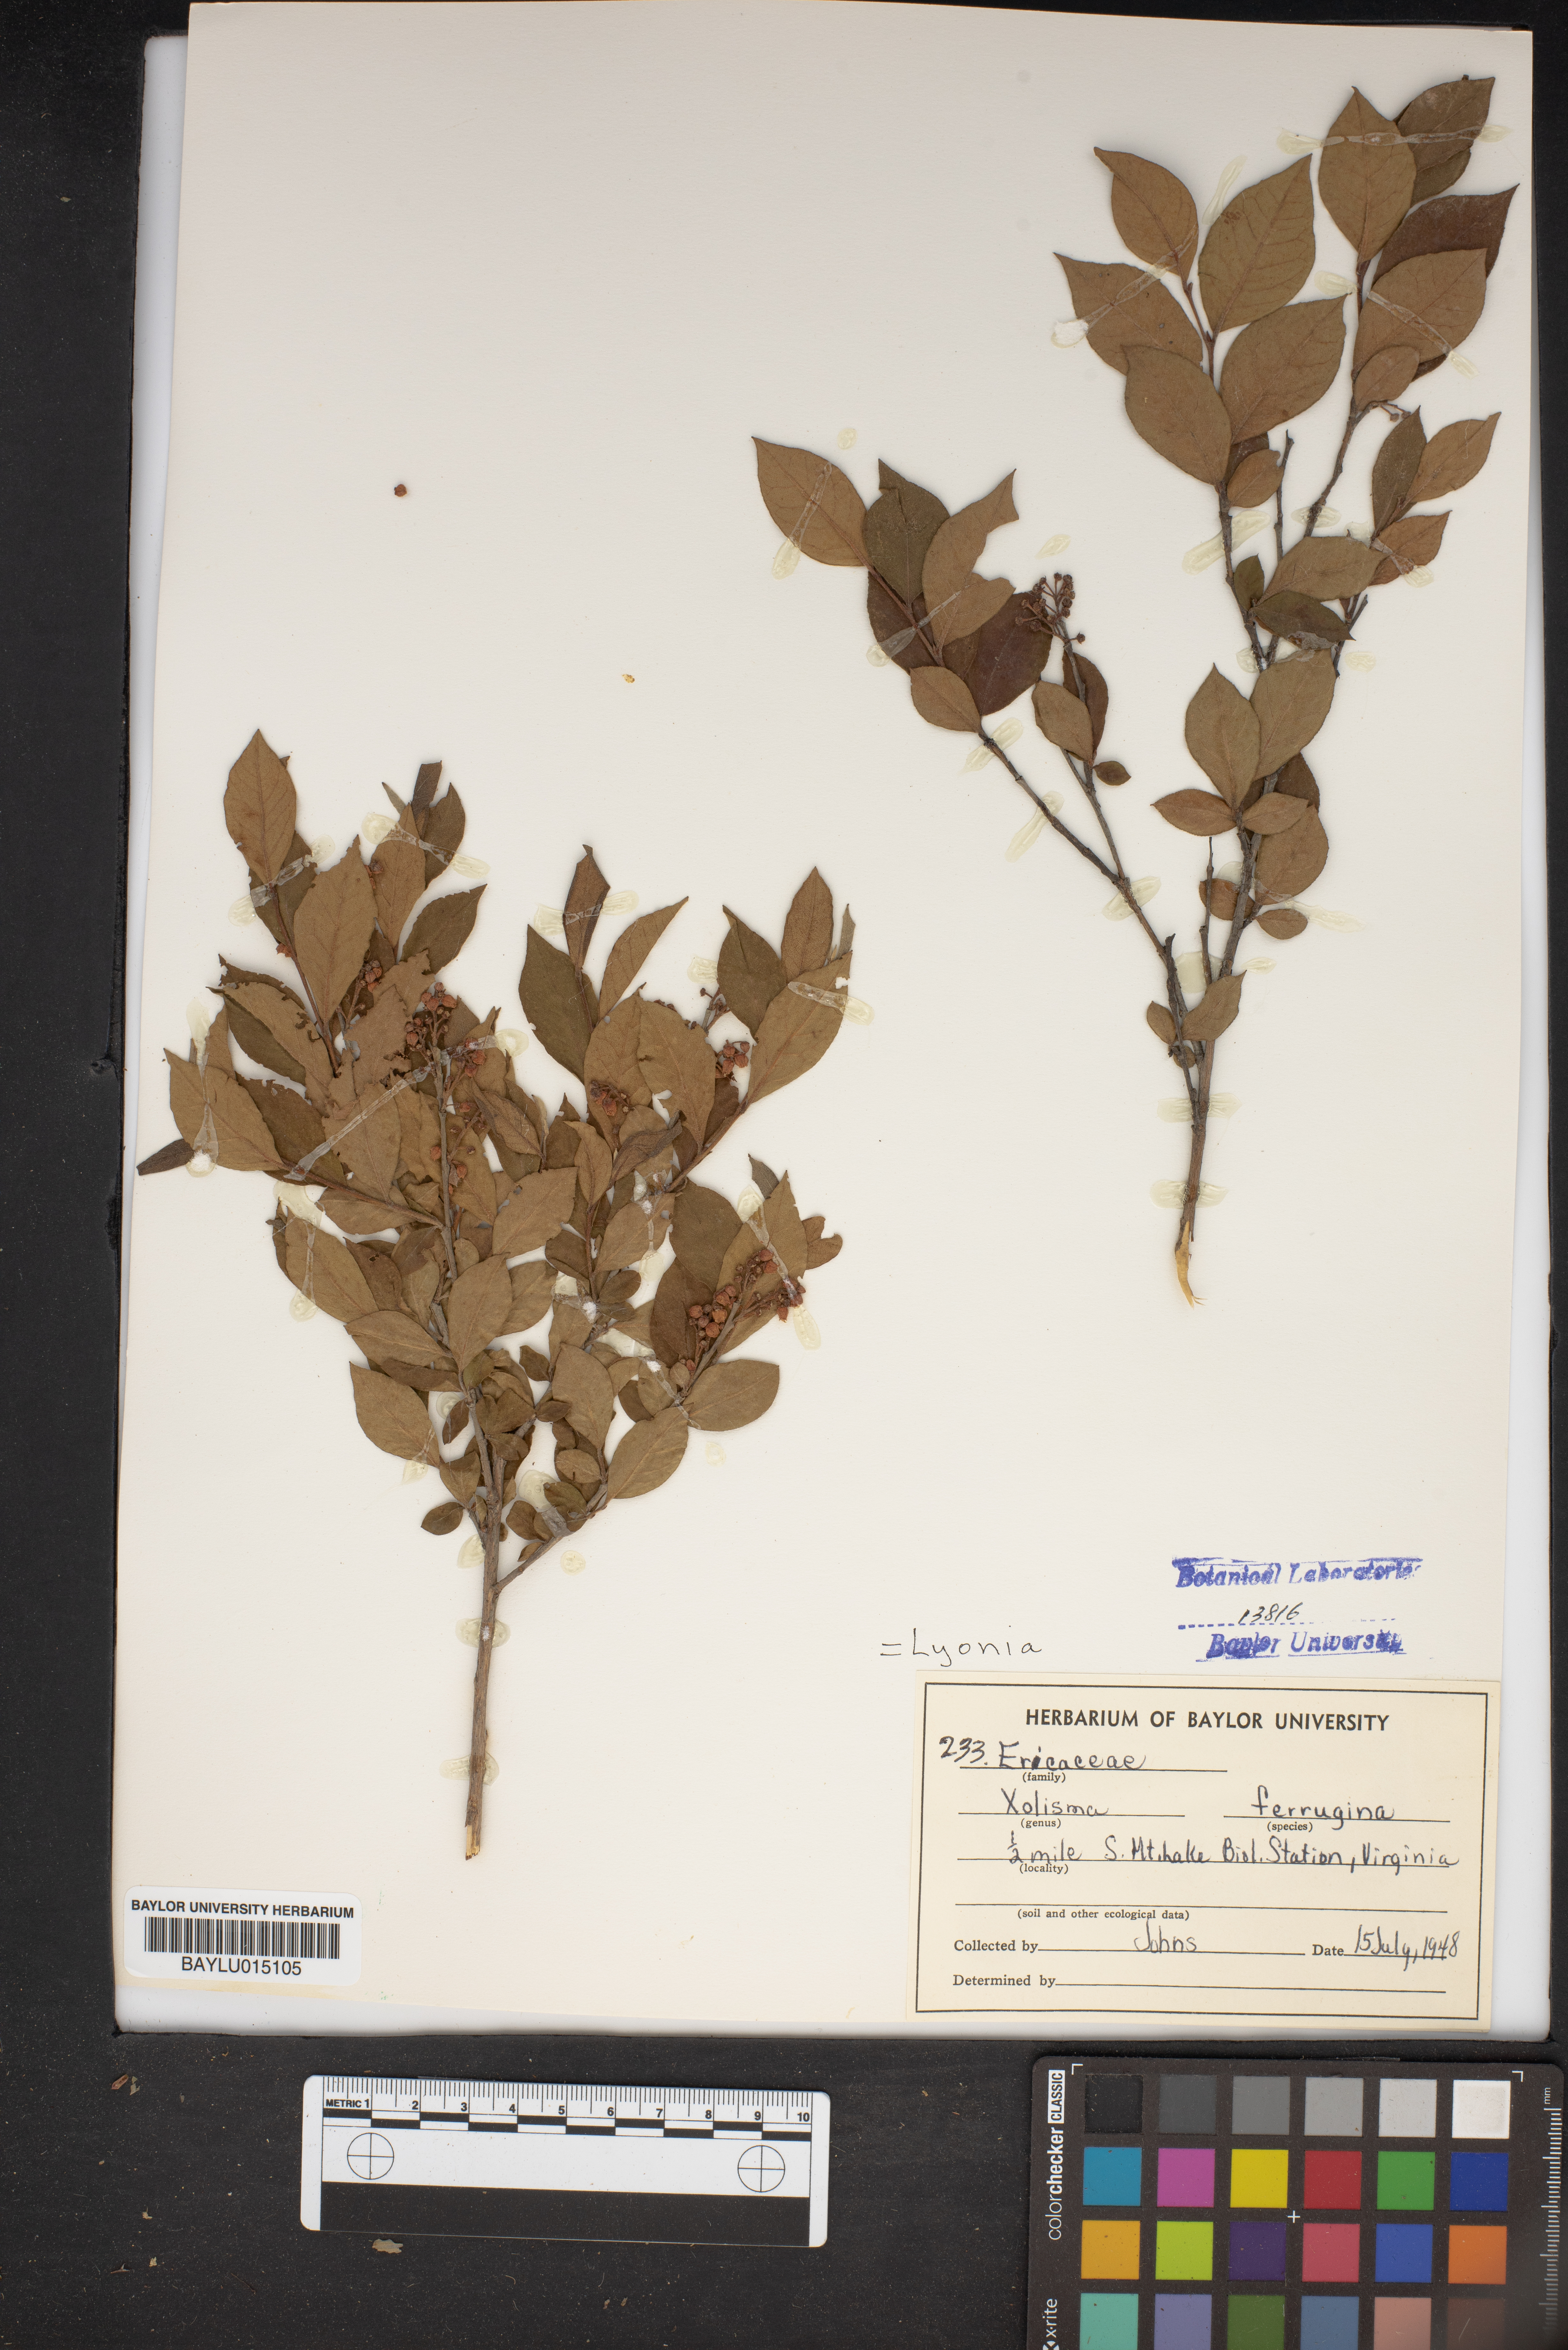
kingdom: Plantae
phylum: Tracheophyta
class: Magnoliopsida
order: Ericales
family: Ericaceae
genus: Lyonia
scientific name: Lyonia ferruginea
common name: Rusty lyonia
